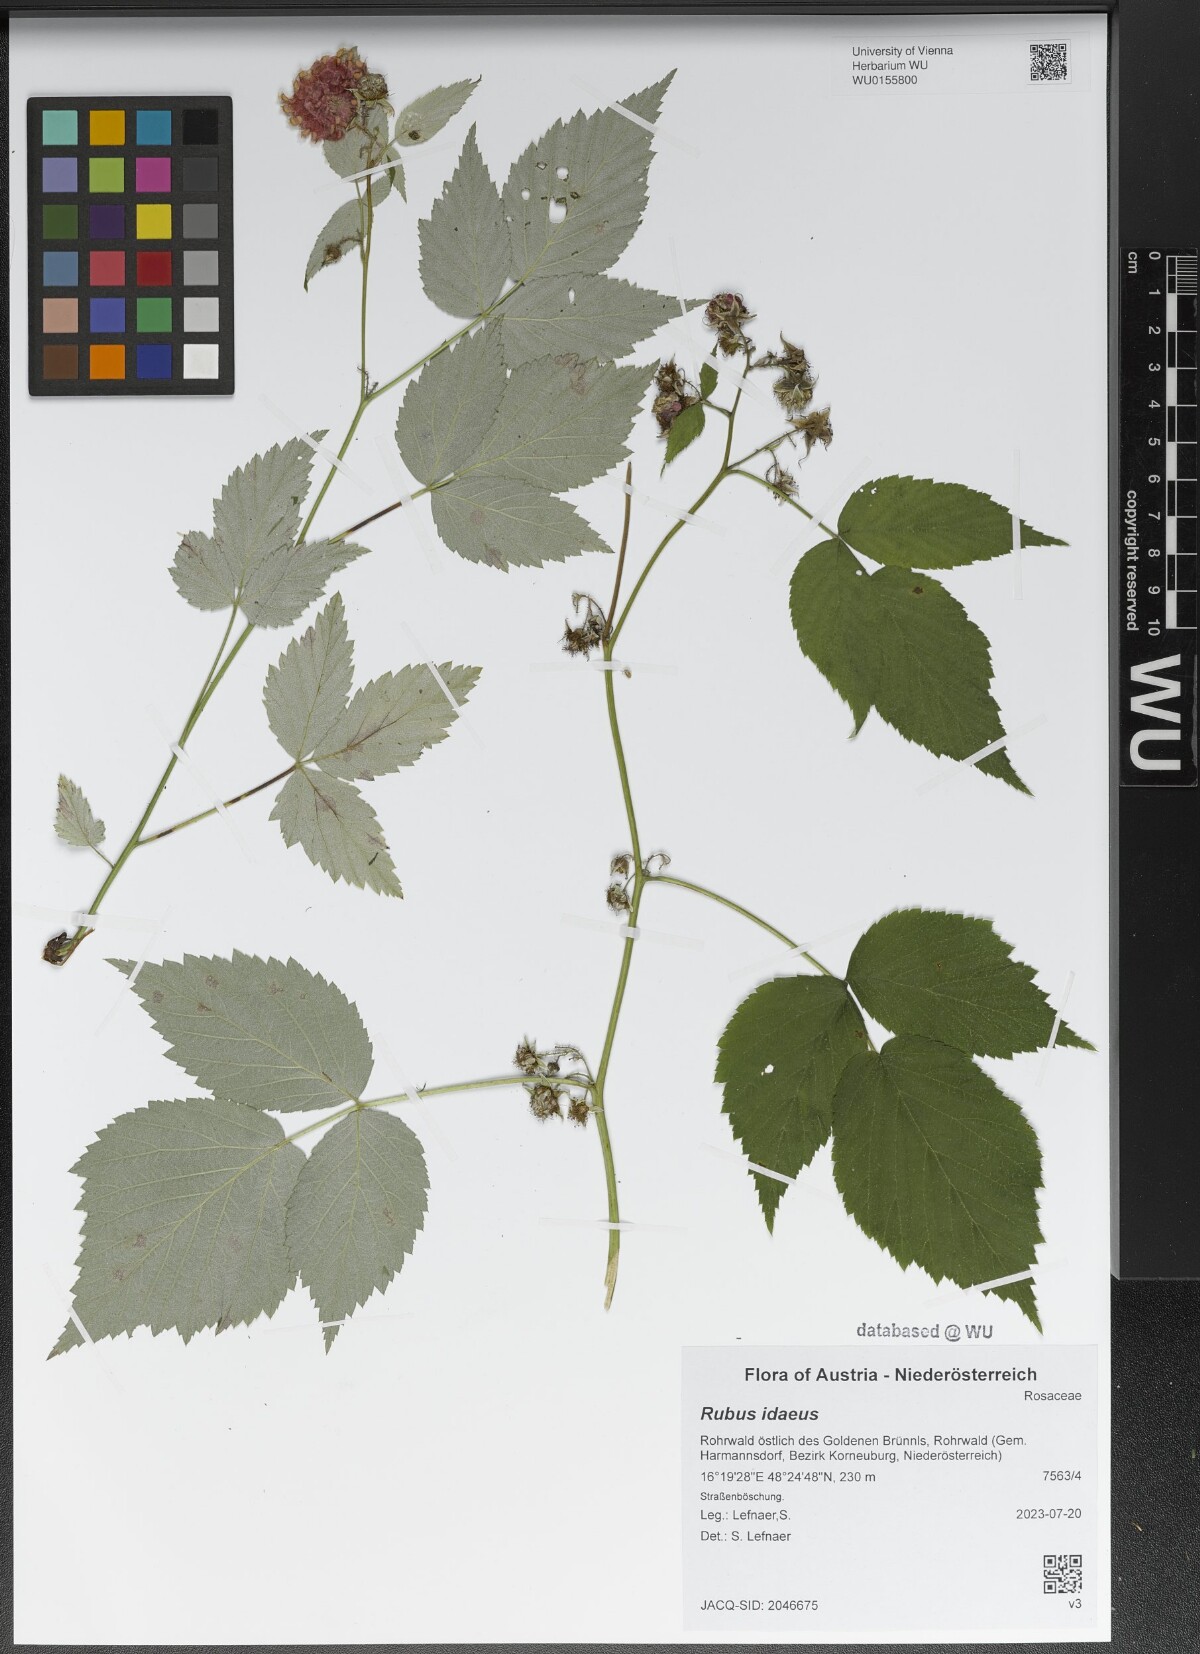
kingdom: Plantae
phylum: Tracheophyta
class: Magnoliopsida
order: Rosales
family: Rosaceae
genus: Rubus
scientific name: Rubus idaeus
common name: Raspberry
